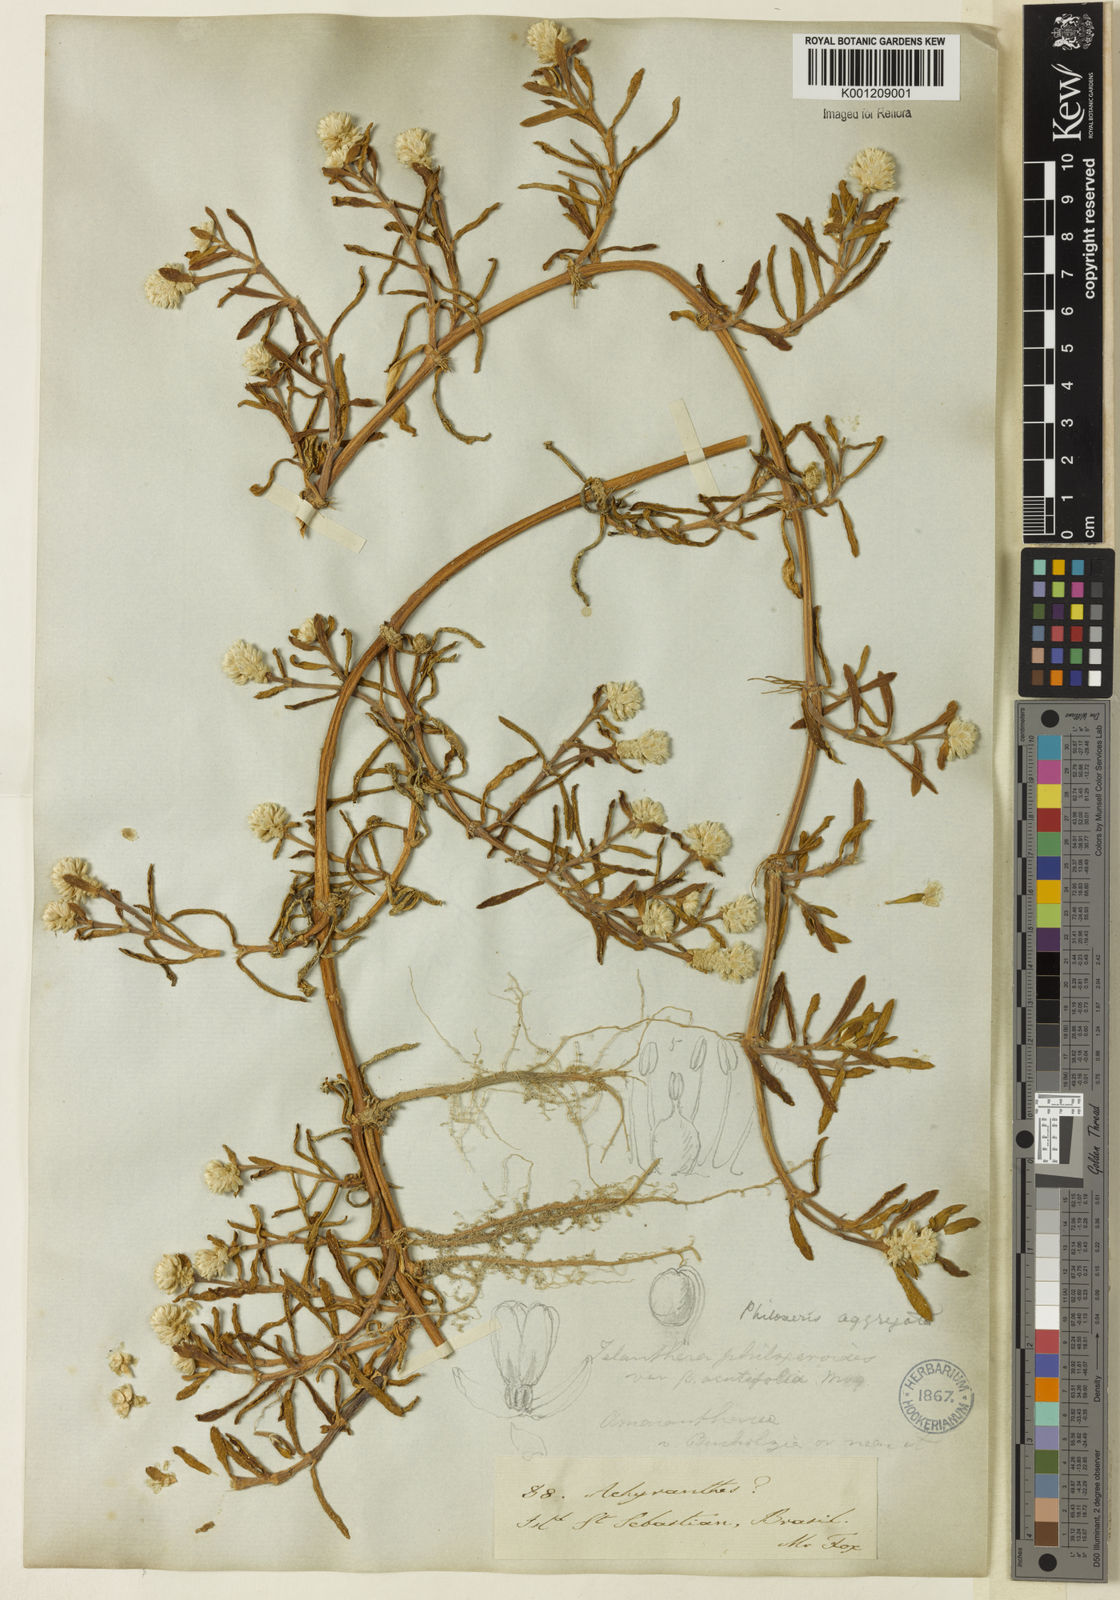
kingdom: Plantae
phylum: Tracheophyta
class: Magnoliopsida
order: Caryophyllales
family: Amaranthaceae
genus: Gomphrena
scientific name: Gomphrena vermicularis
